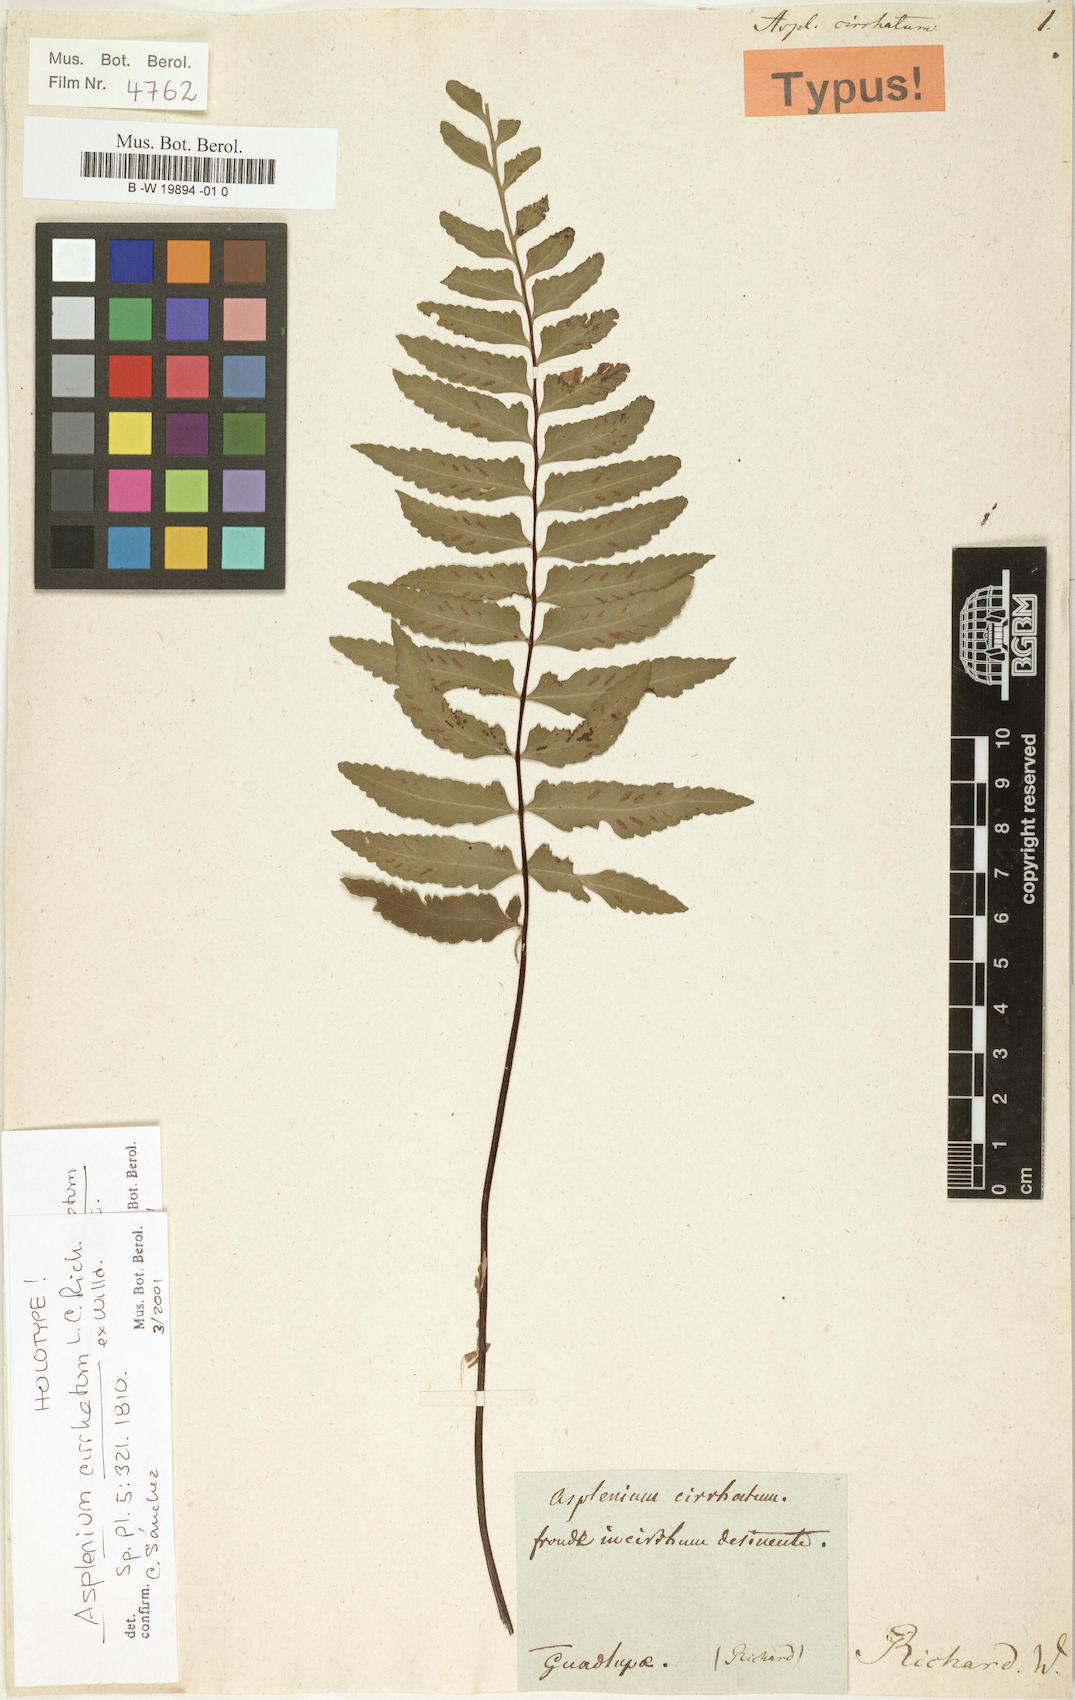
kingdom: Plantae
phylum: Tracheophyta
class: Polypodiopsida
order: Polypodiales
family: Aspleniaceae
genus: Asplenium
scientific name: Asplenium cirrhatum
